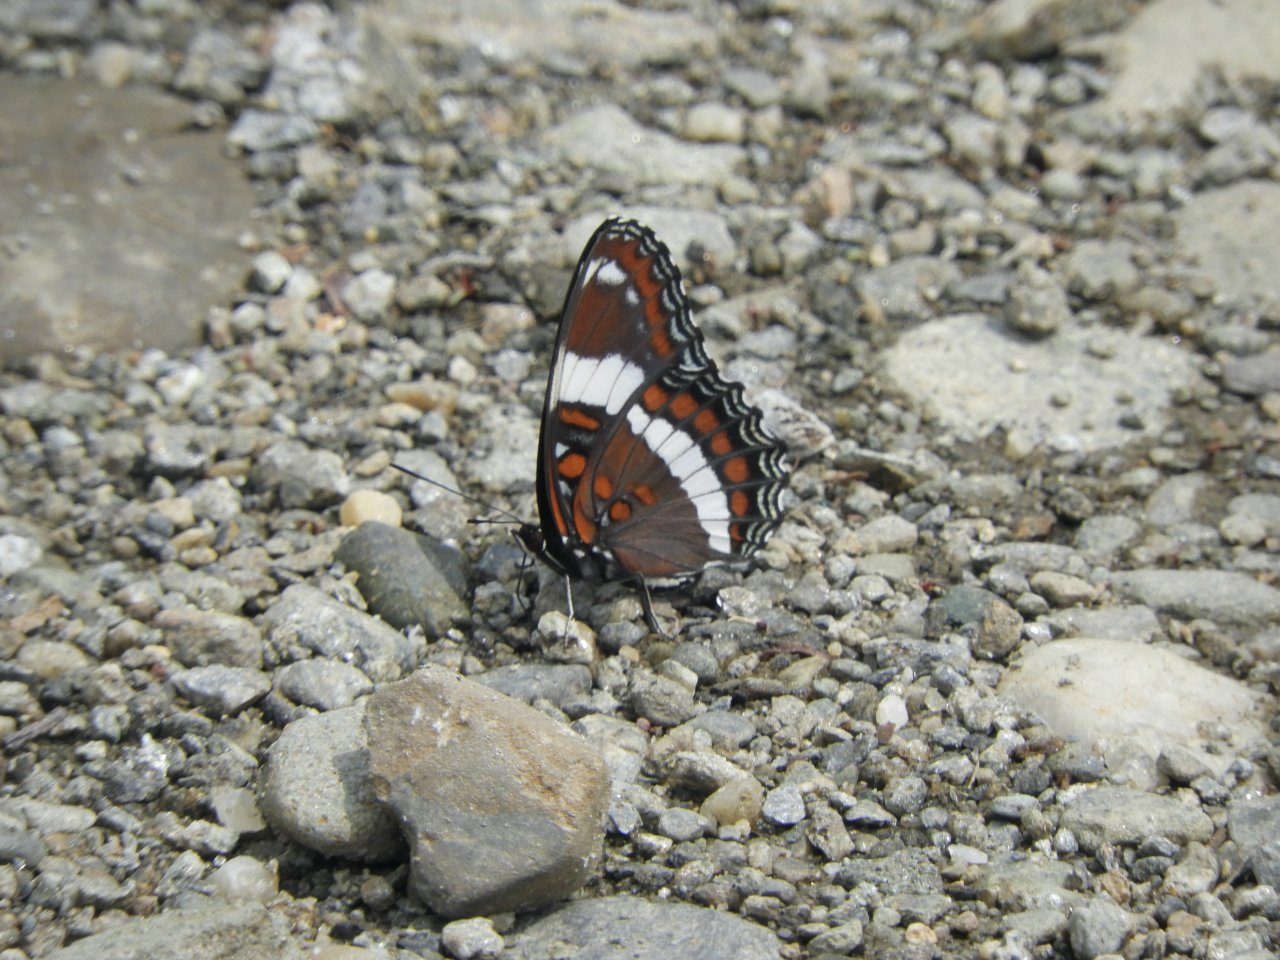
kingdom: Animalia
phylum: Arthropoda
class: Insecta
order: Lepidoptera
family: Nymphalidae
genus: Limenitis
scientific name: Limenitis arthemis
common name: Red-spotted Admiral
